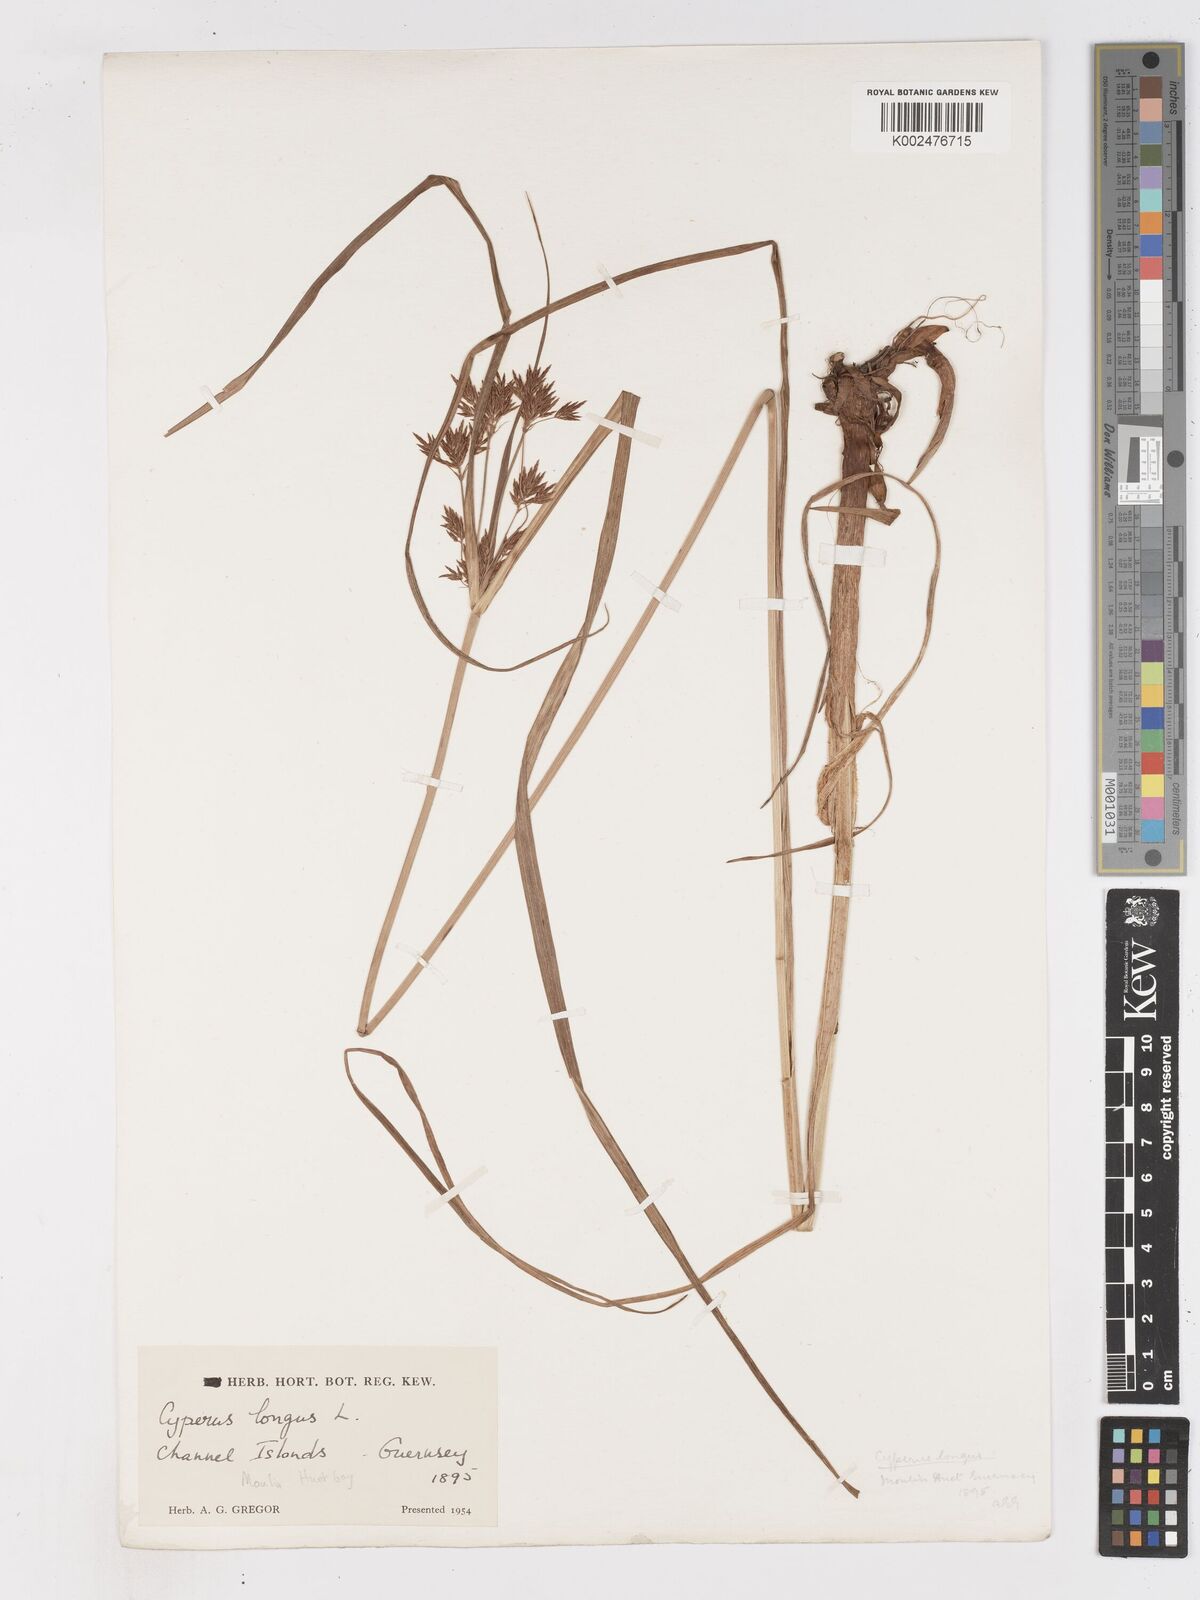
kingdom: Plantae
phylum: Tracheophyta
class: Liliopsida
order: Poales
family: Cyperaceae
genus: Cyperus
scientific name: Cyperus longus
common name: Galingale
